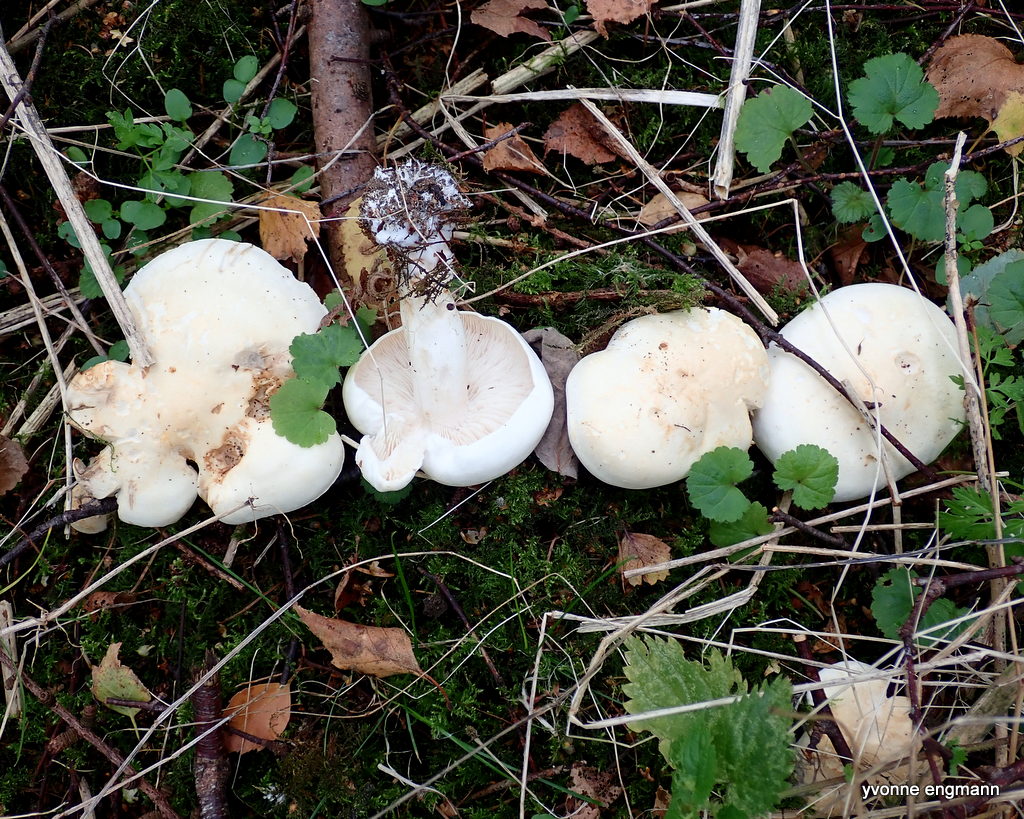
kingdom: Fungi
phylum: Basidiomycota
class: Agaricomycetes
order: Agaricales
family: Tricholomataceae
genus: Tricholoma
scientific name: Tricholoma stiparophyllum
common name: hvid ridderhat
